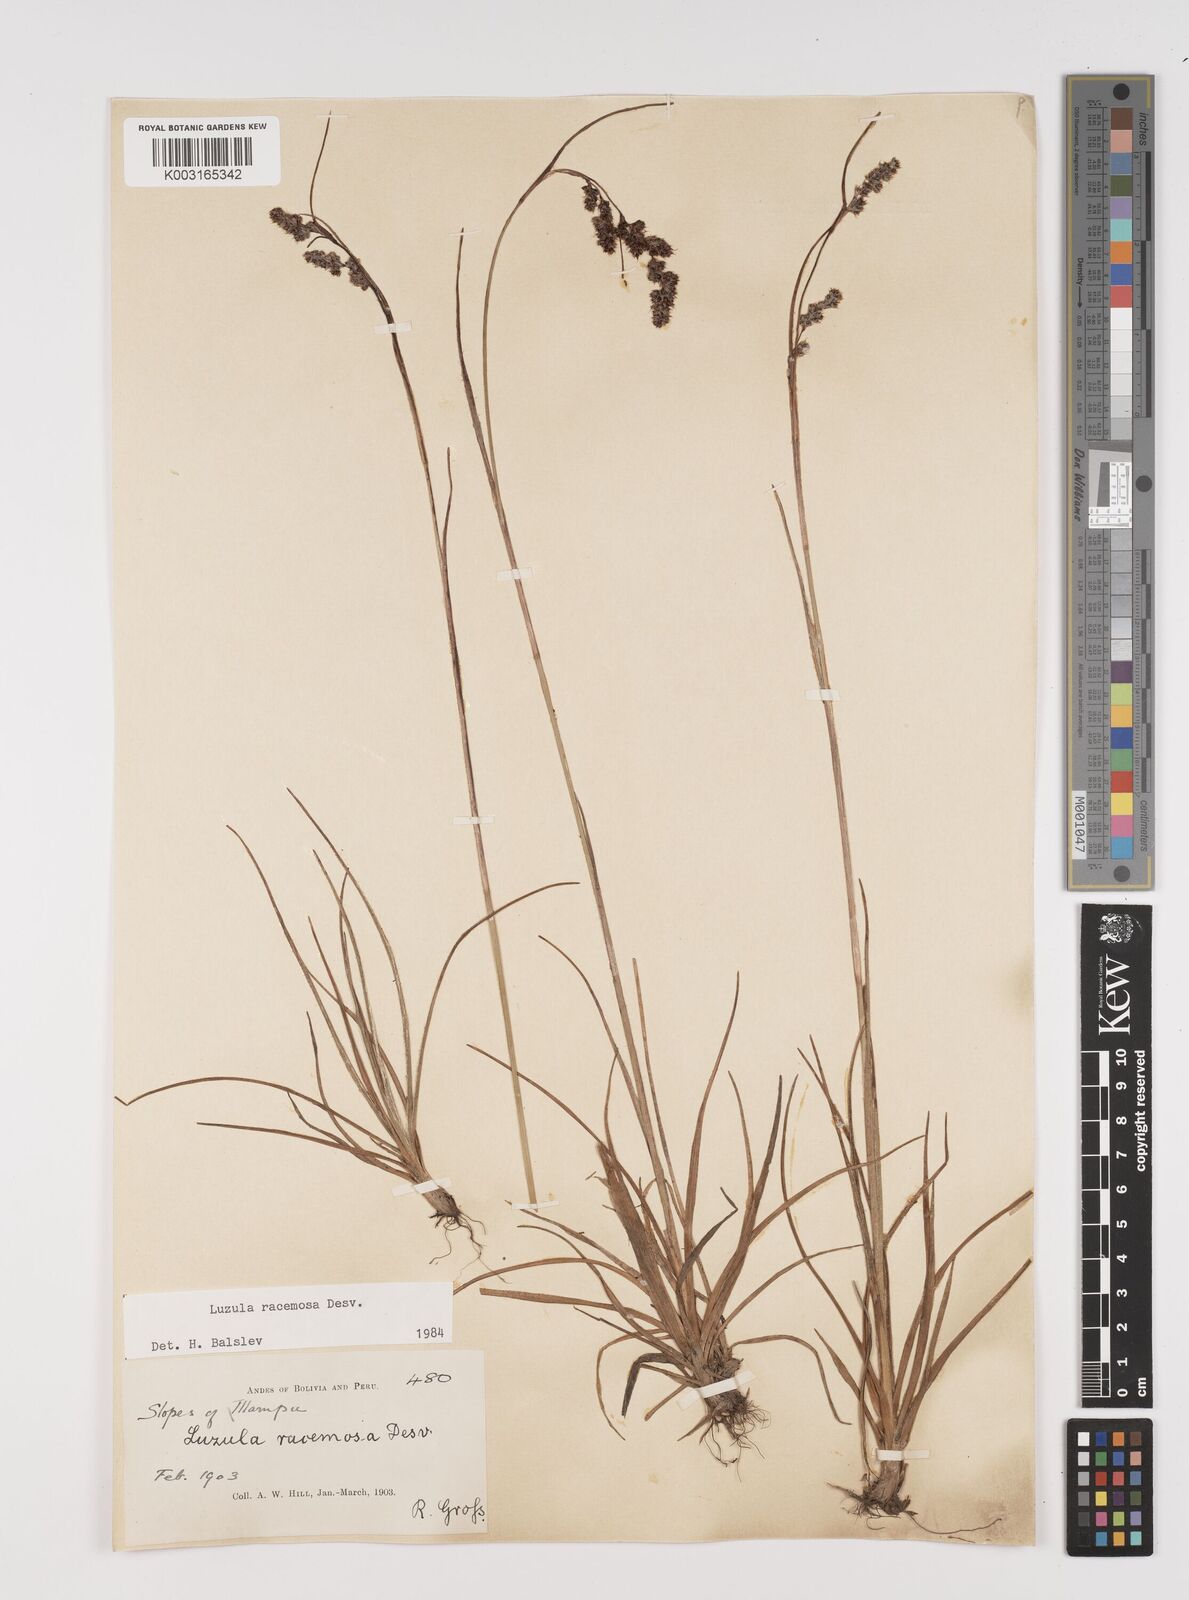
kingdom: Plantae
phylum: Tracheophyta
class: Liliopsida
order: Poales
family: Juncaceae
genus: Luzula
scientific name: Luzula racemosa
